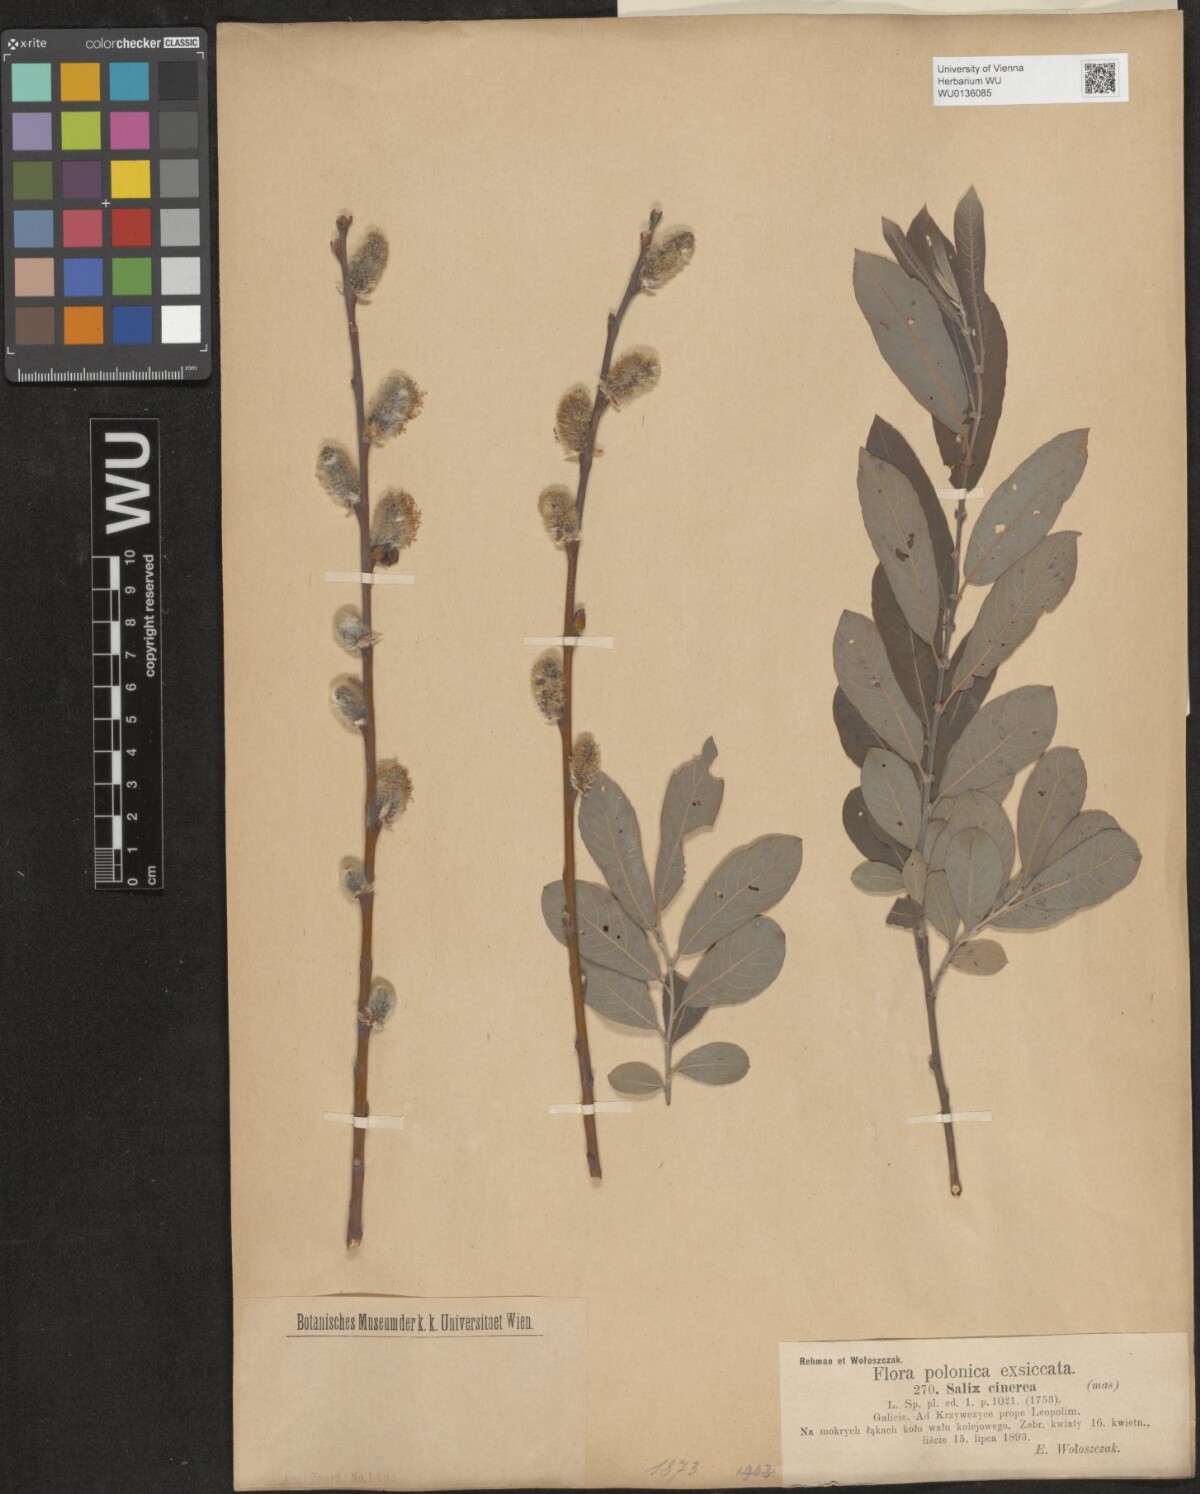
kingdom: Plantae
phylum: Tracheophyta
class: Magnoliopsida
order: Malpighiales
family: Salicaceae
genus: Salix
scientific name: Salix cinerea
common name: Common sallow
